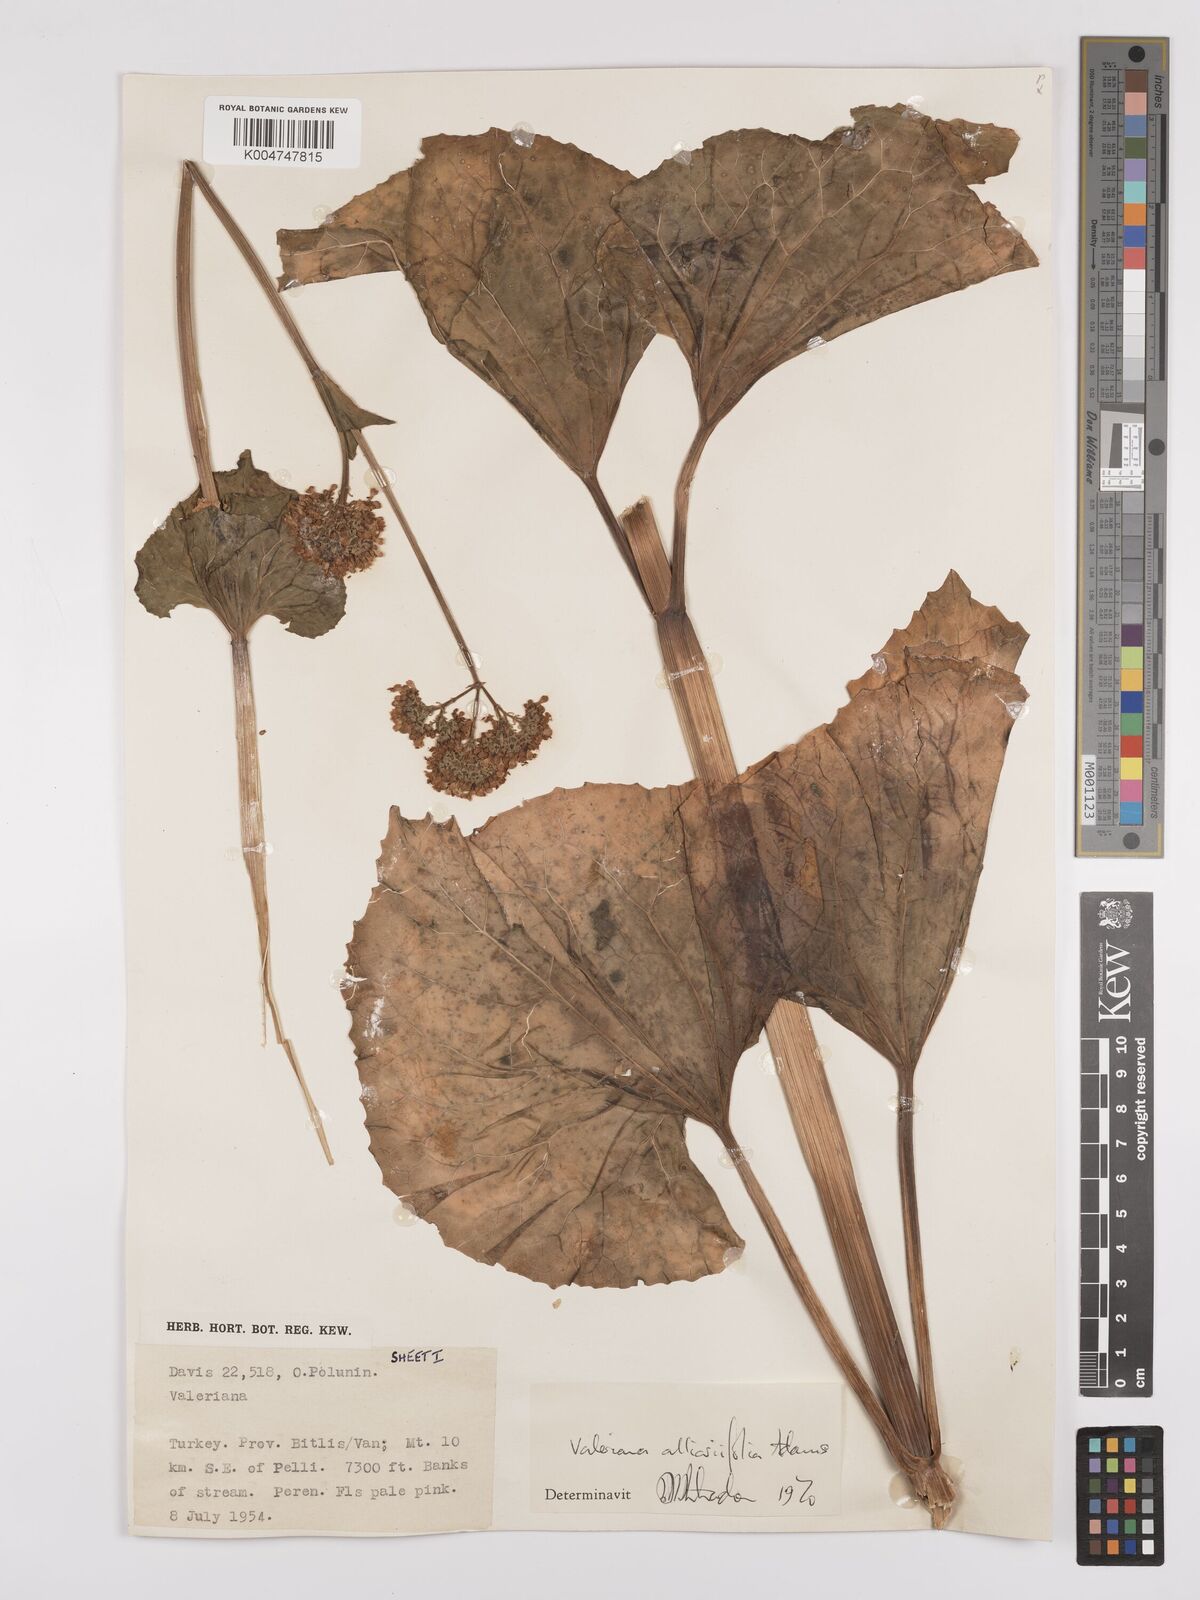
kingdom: Plantae
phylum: Tracheophyta
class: Magnoliopsida
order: Dipsacales
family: Caprifoliaceae
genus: Valeriana
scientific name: Valeriana
